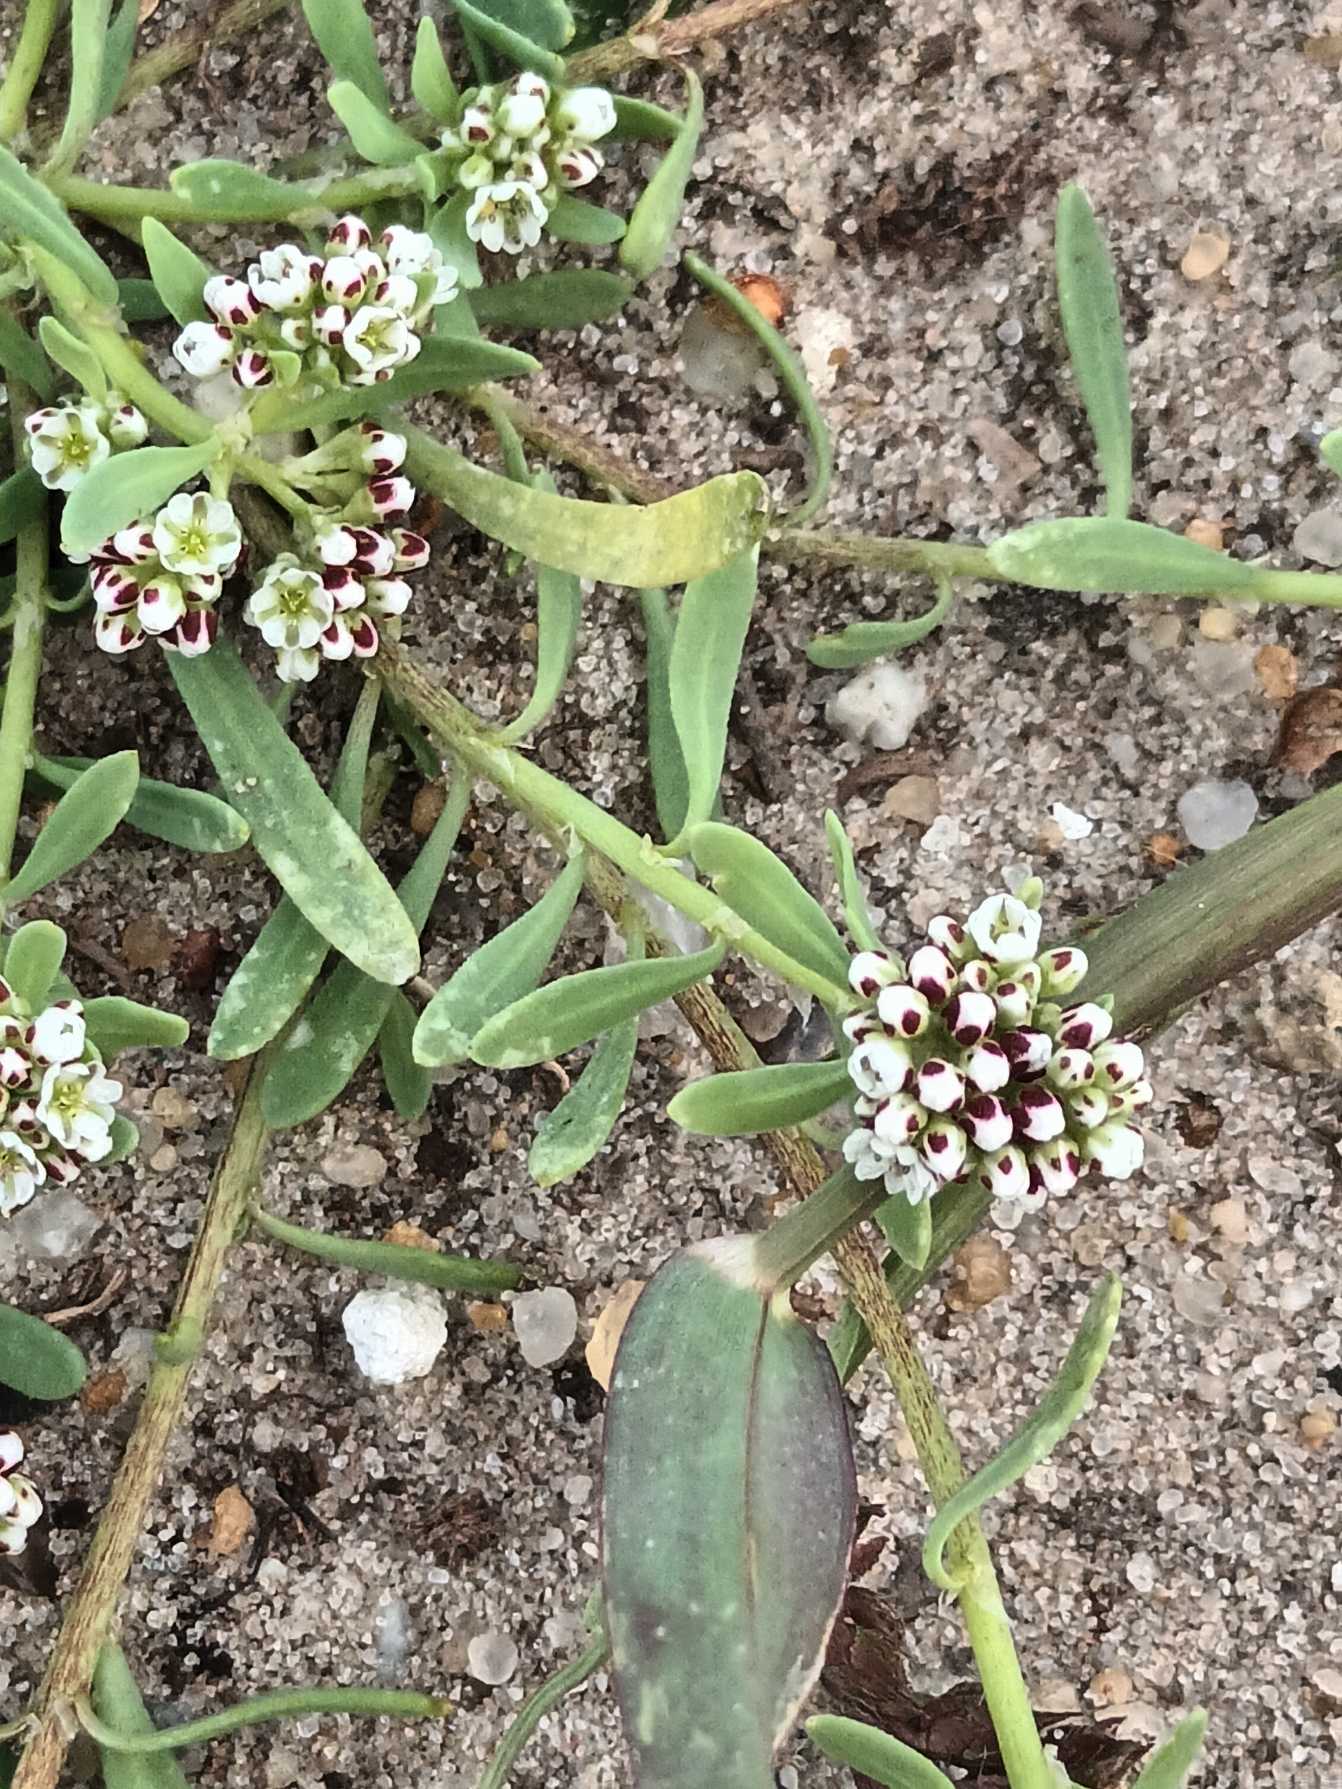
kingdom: Plantae
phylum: Tracheophyta
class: Magnoliopsida
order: Caryophyllales
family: Caryophyllaceae
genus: Corrigiola
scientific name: Corrigiola litoralis
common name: Skorem
